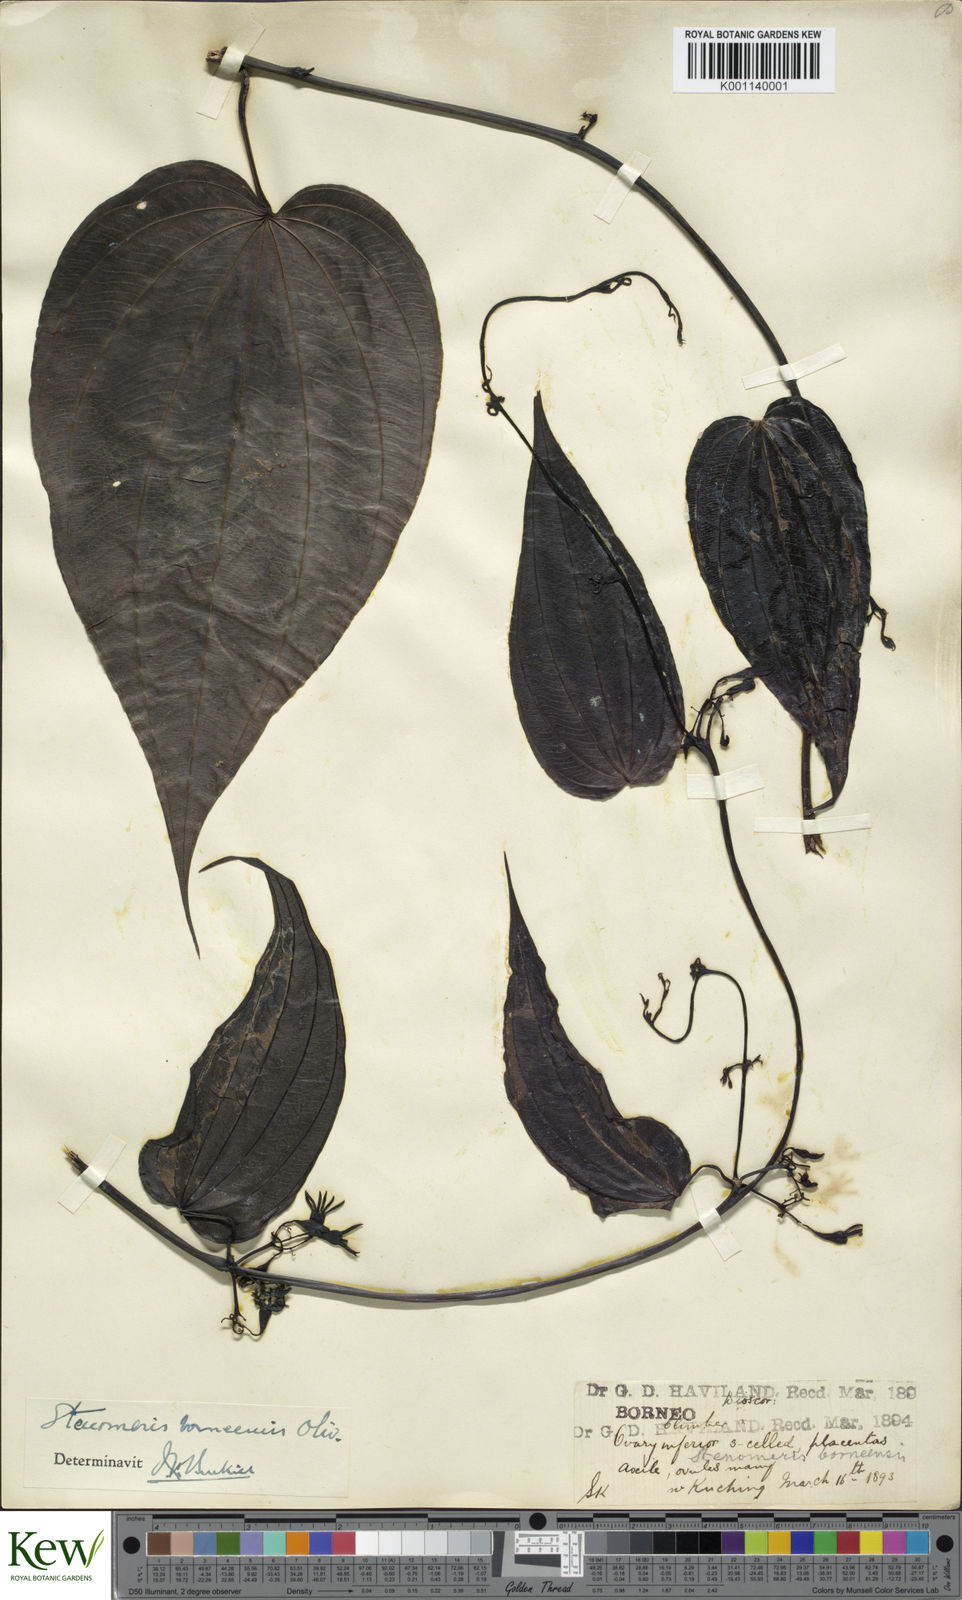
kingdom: Plantae
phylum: Tracheophyta
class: Liliopsida
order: Dioscoreales
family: Dioscoreaceae
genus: Stenomeris
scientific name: Stenomeris borneensis
